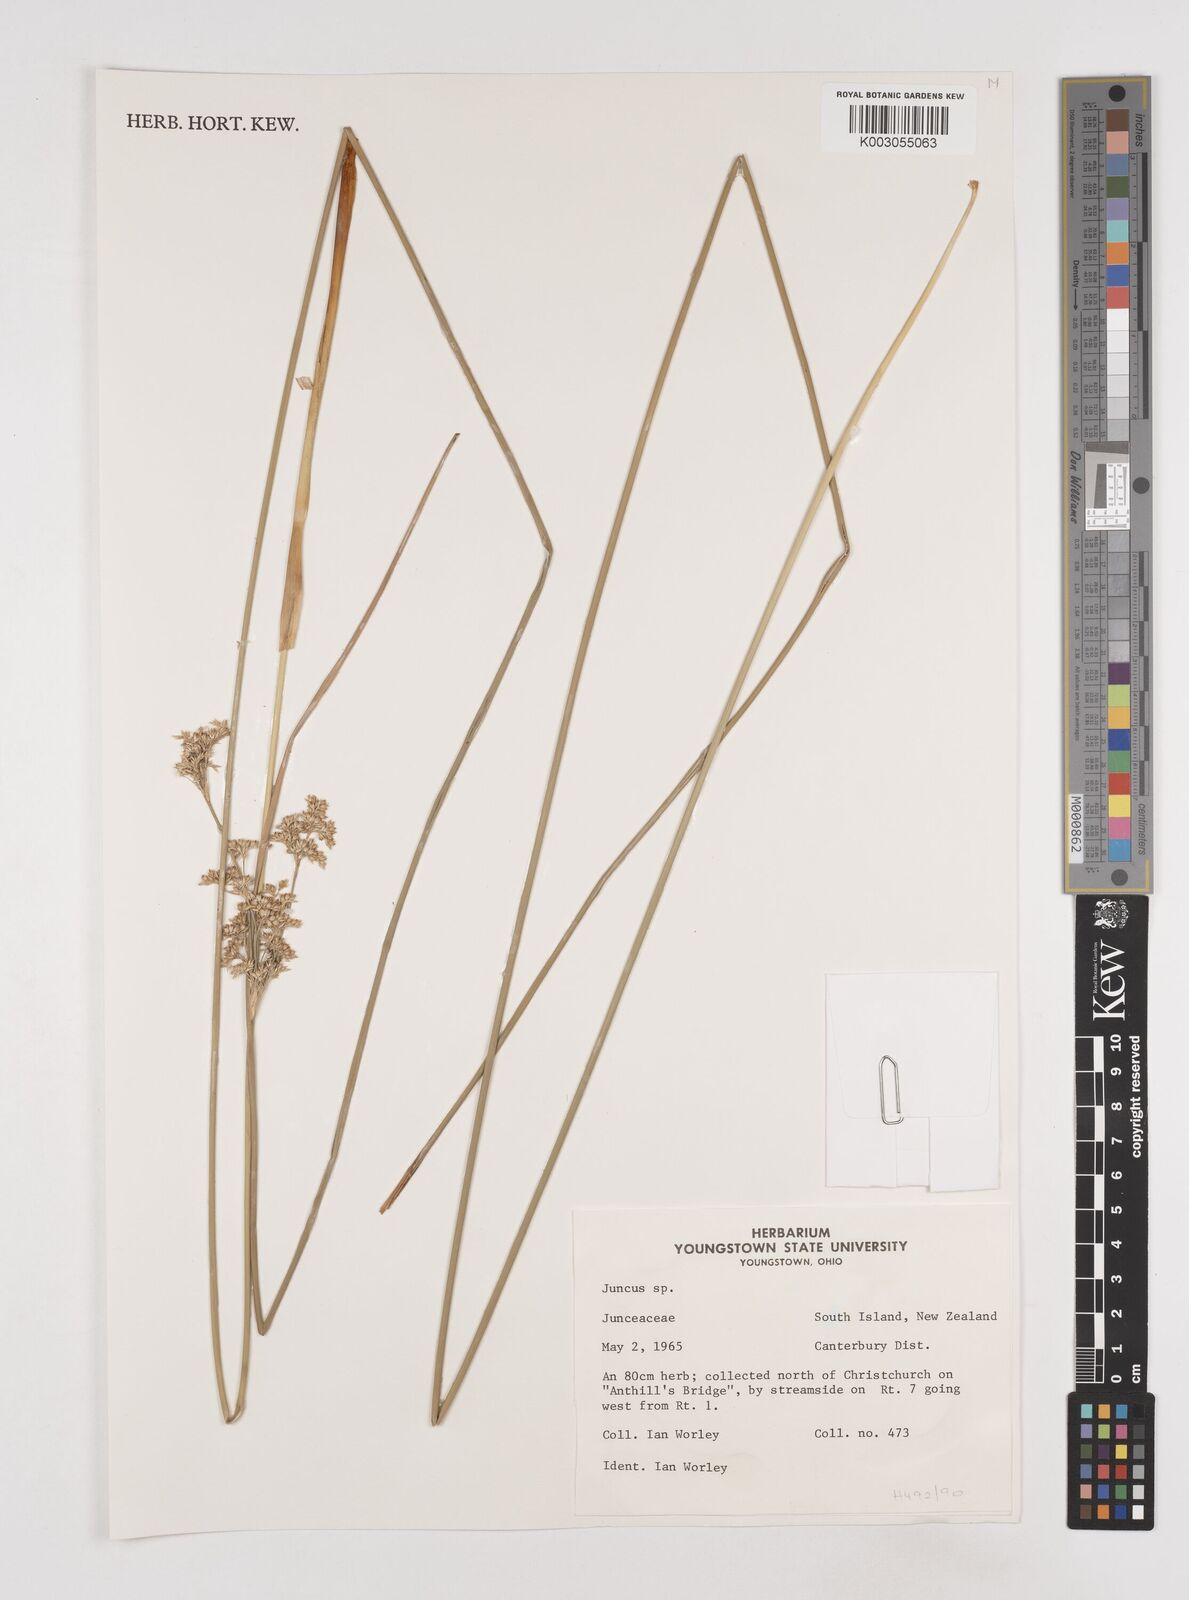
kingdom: Plantae
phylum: Tracheophyta
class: Liliopsida
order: Poales
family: Juncaceae
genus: Juncus
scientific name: Juncus
